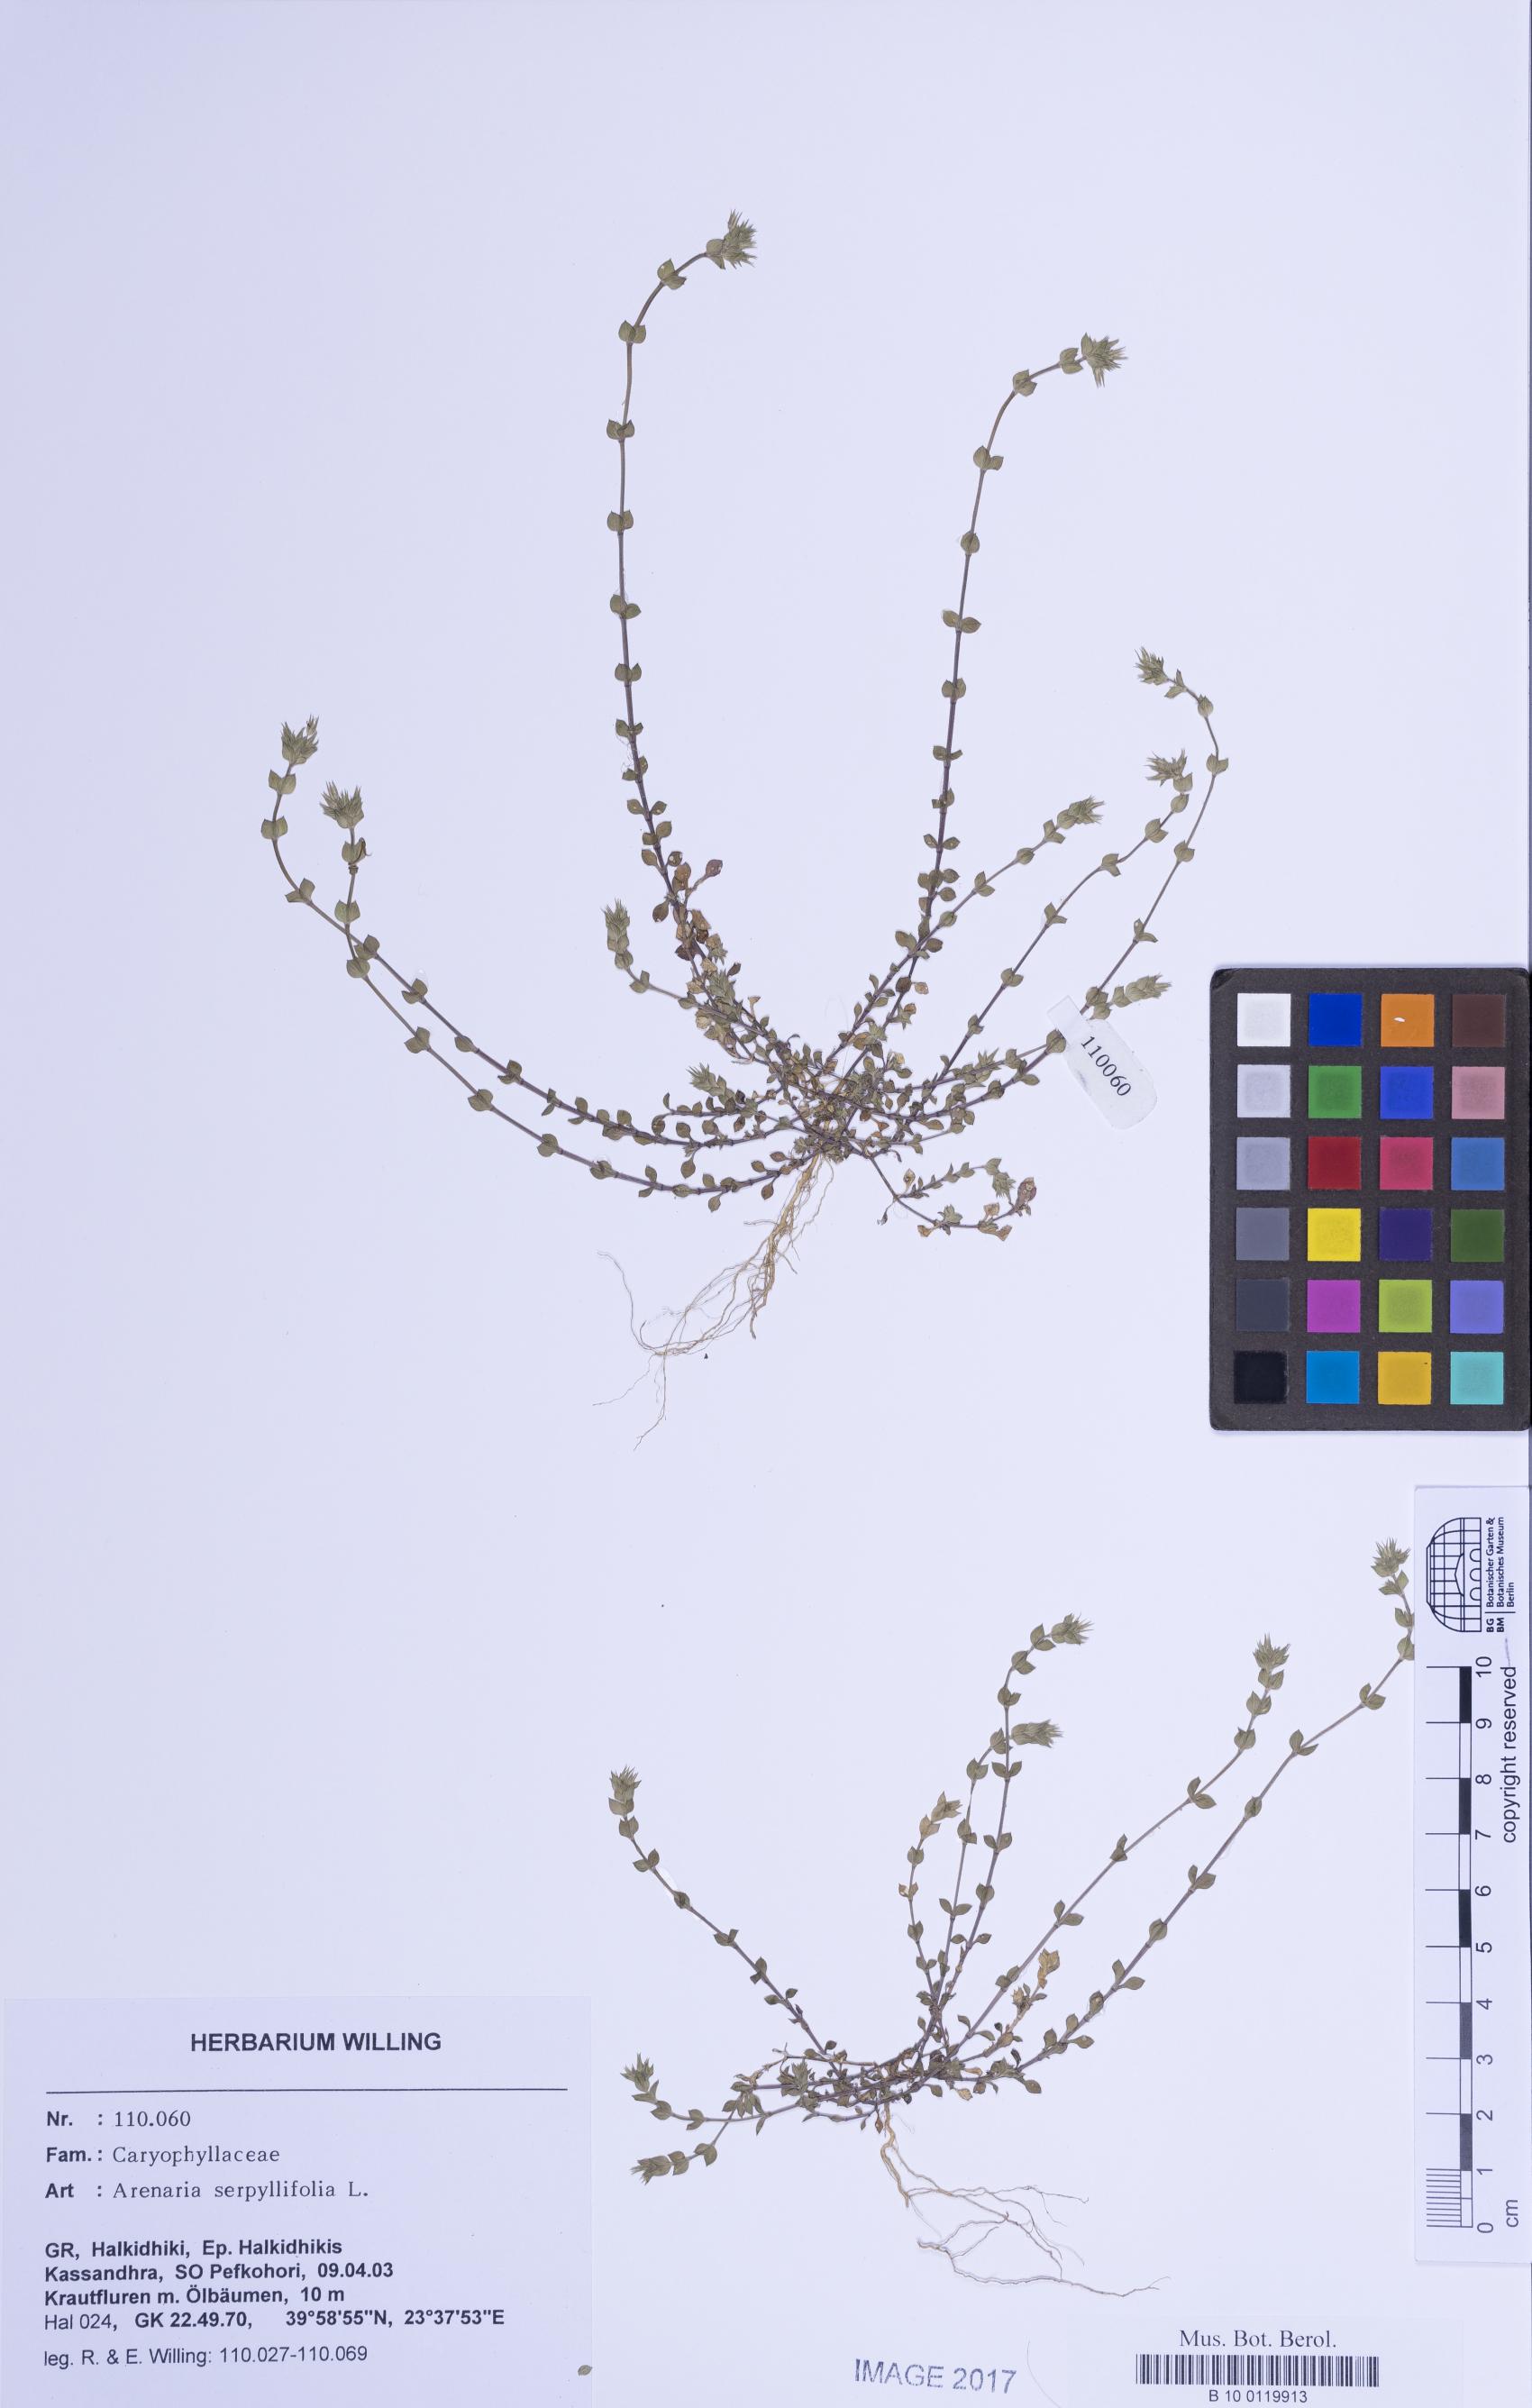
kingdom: Plantae
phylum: Tracheophyta
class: Magnoliopsida
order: Caryophyllales
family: Caryophyllaceae
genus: Arenaria
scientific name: Arenaria serpyllifolia
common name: Thyme-leaved sandwort
